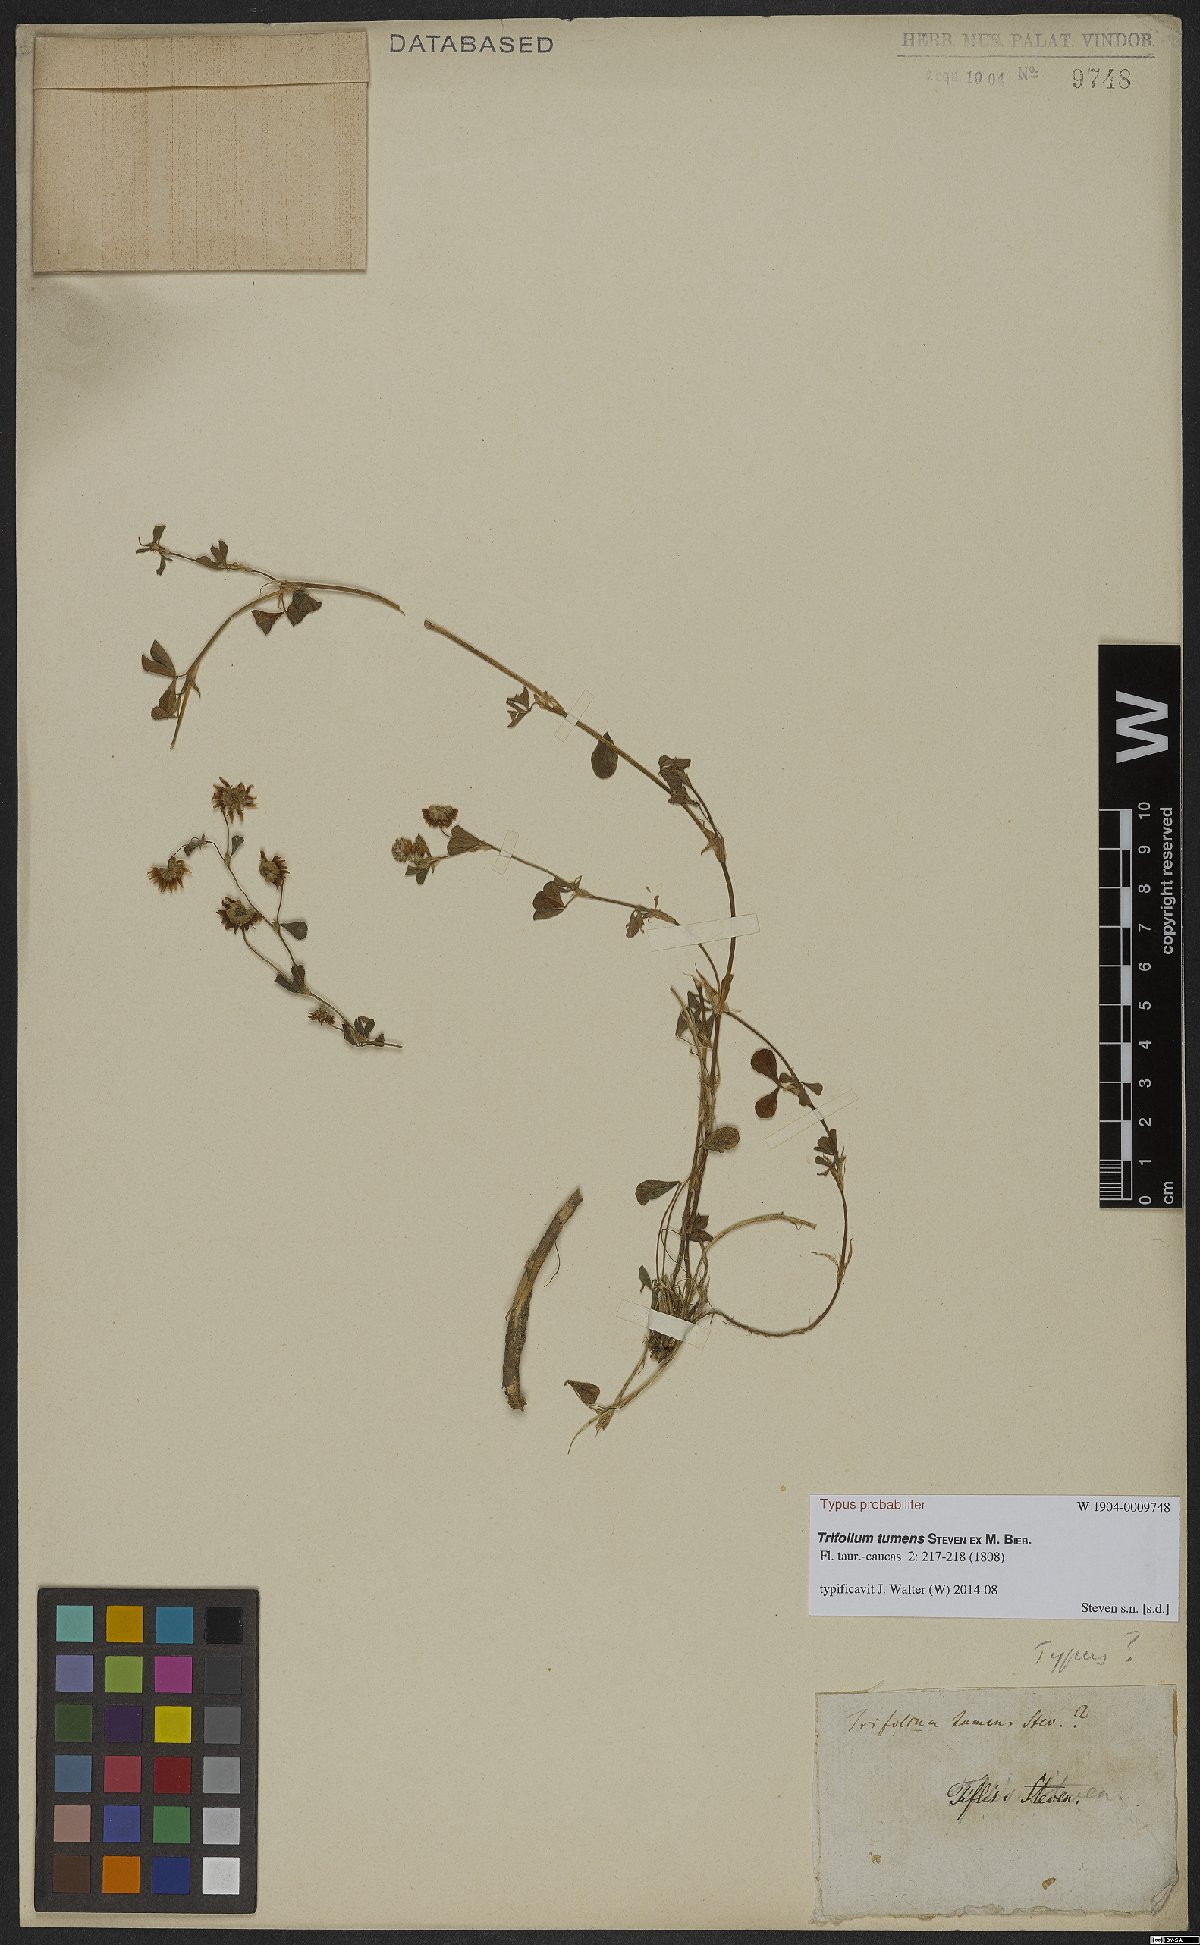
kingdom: Plantae
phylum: Tracheophyta
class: Magnoliopsida
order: Fabales
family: Fabaceae
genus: Trifolium
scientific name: Trifolium tumens
